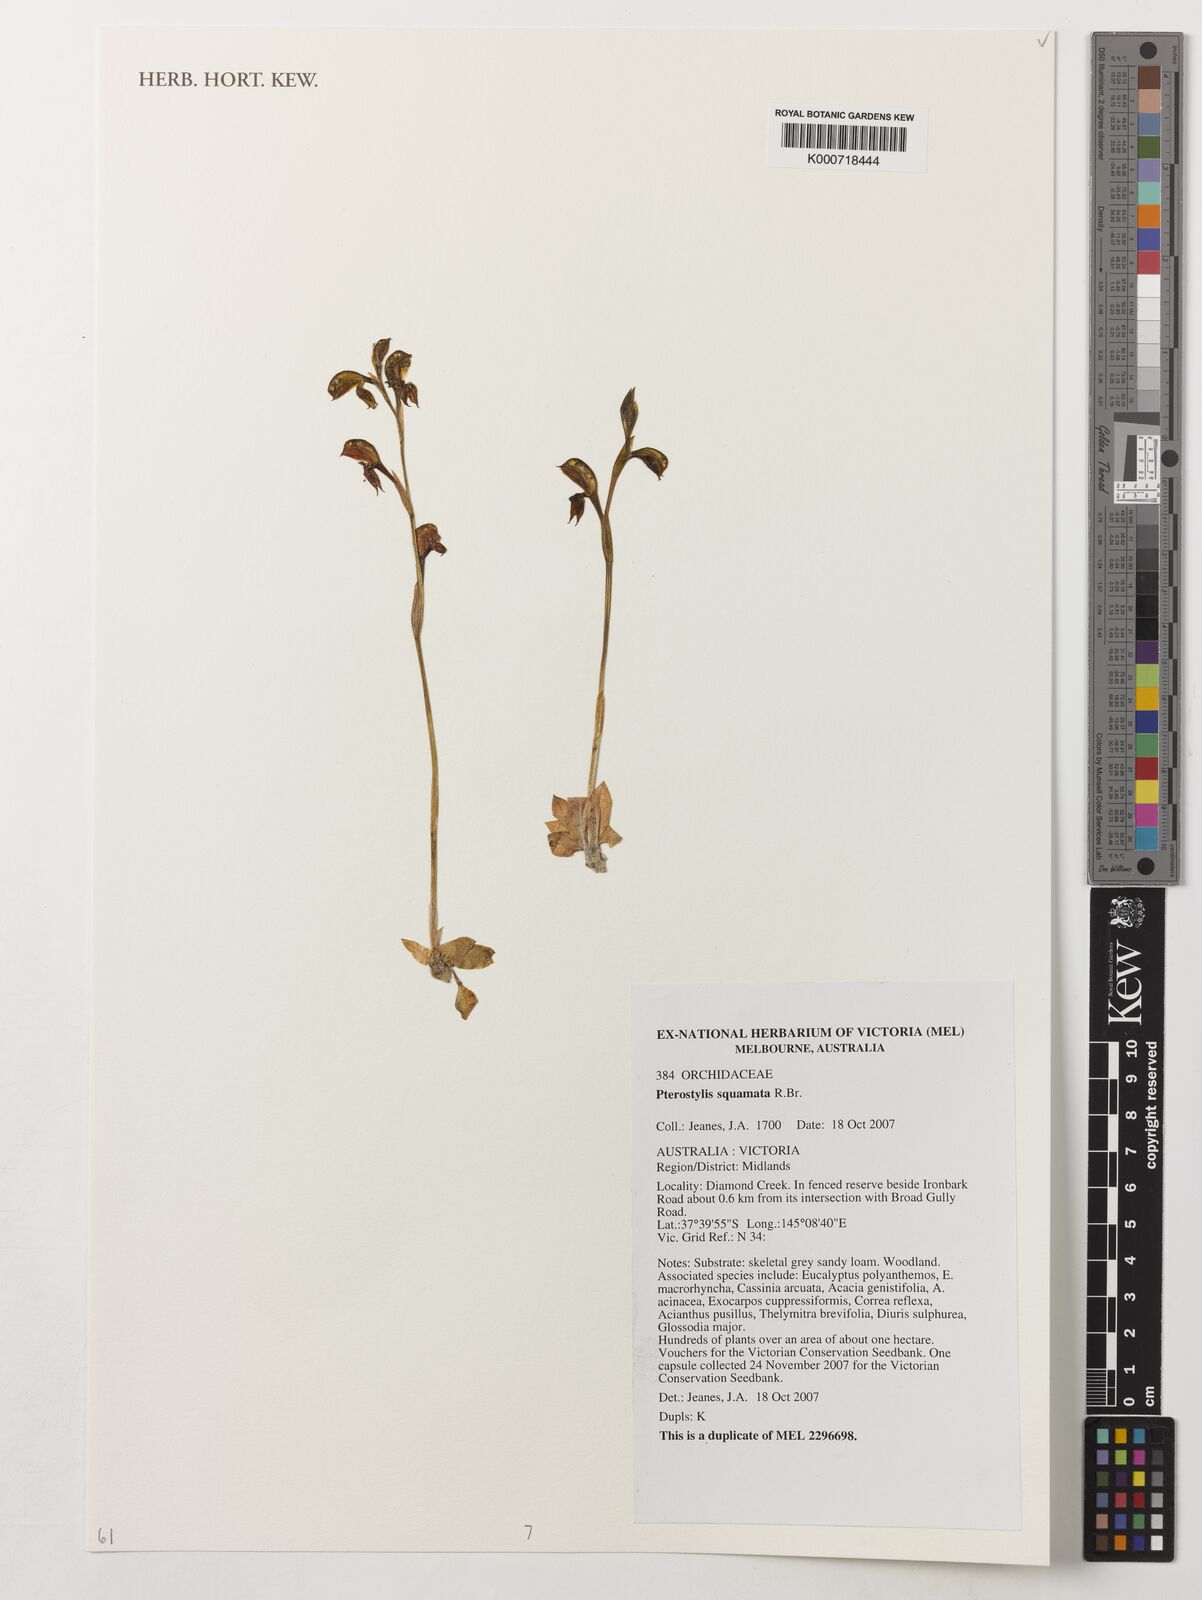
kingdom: Plantae
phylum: Tracheophyta
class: Liliopsida
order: Asparagales
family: Orchidaceae
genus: Pterostylis
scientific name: Pterostylis squamata
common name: Ruddy greenhood
